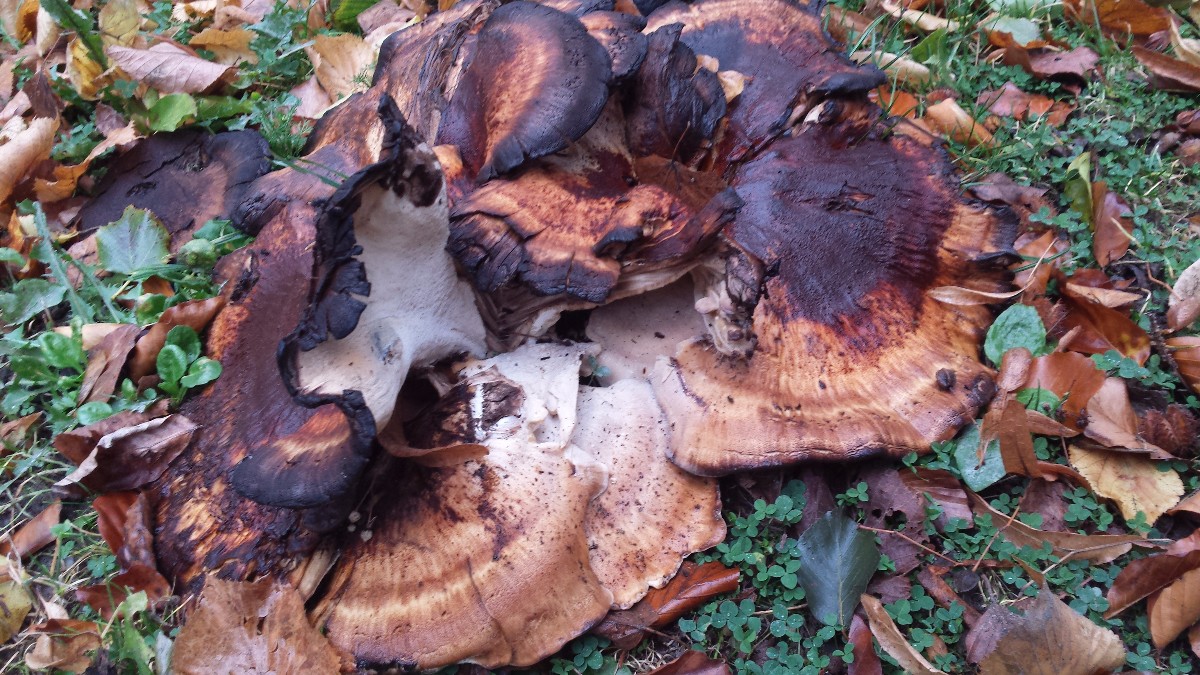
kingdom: Fungi
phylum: Basidiomycota
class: Agaricomycetes
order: Polyporales
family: Meripilaceae
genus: Meripilus
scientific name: Meripilus giganteus
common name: kæmpeporesvamp
